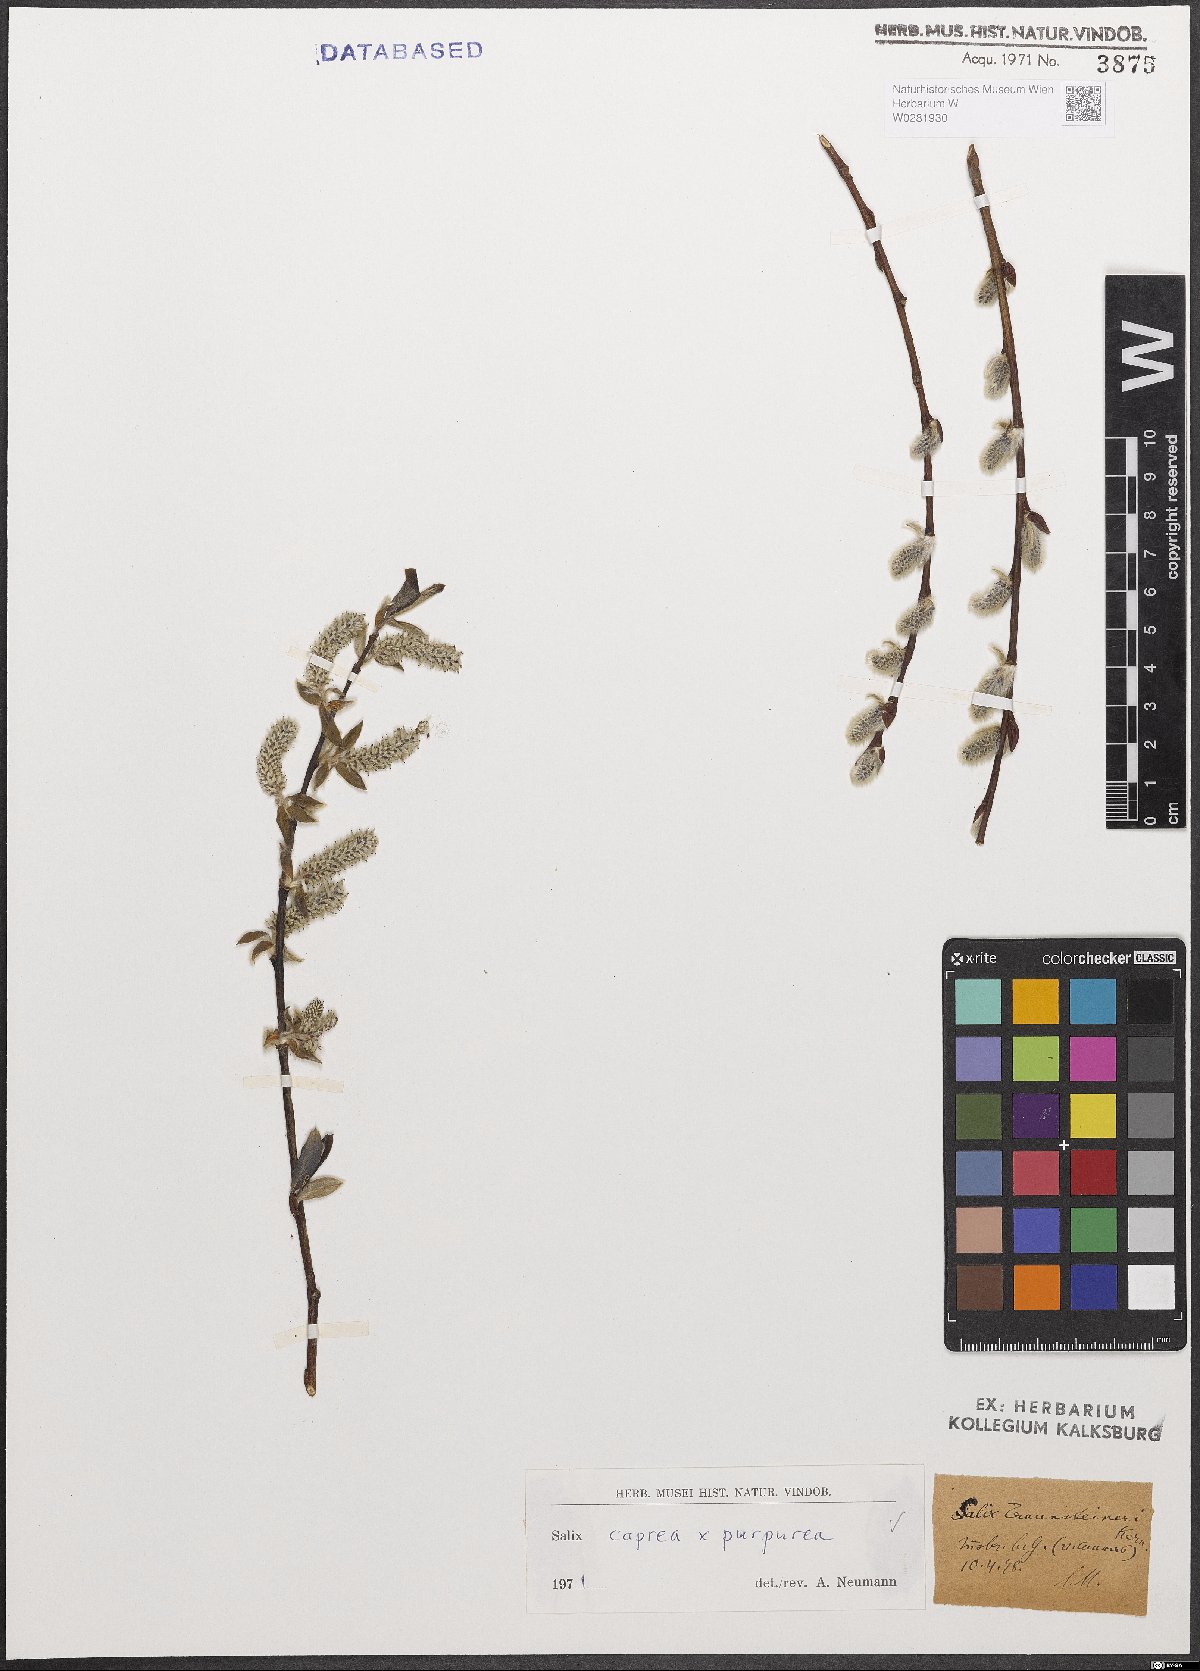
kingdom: Plantae
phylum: Tracheophyta
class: Magnoliopsida
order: Malpighiales
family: Salicaceae
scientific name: Salicaceae
